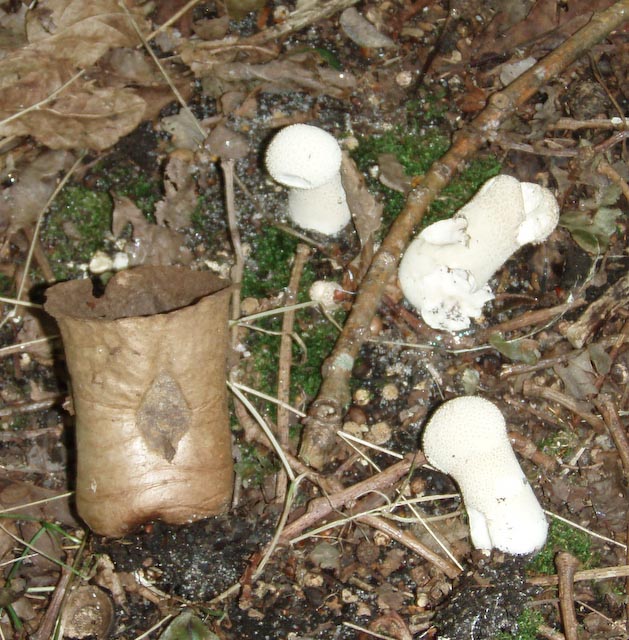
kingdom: Fungi
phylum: Basidiomycota
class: Agaricomycetes
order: Agaricales
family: Lycoperdaceae
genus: Lycoperdon
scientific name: Lycoperdon excipuliforme
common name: højstokket støvbold
